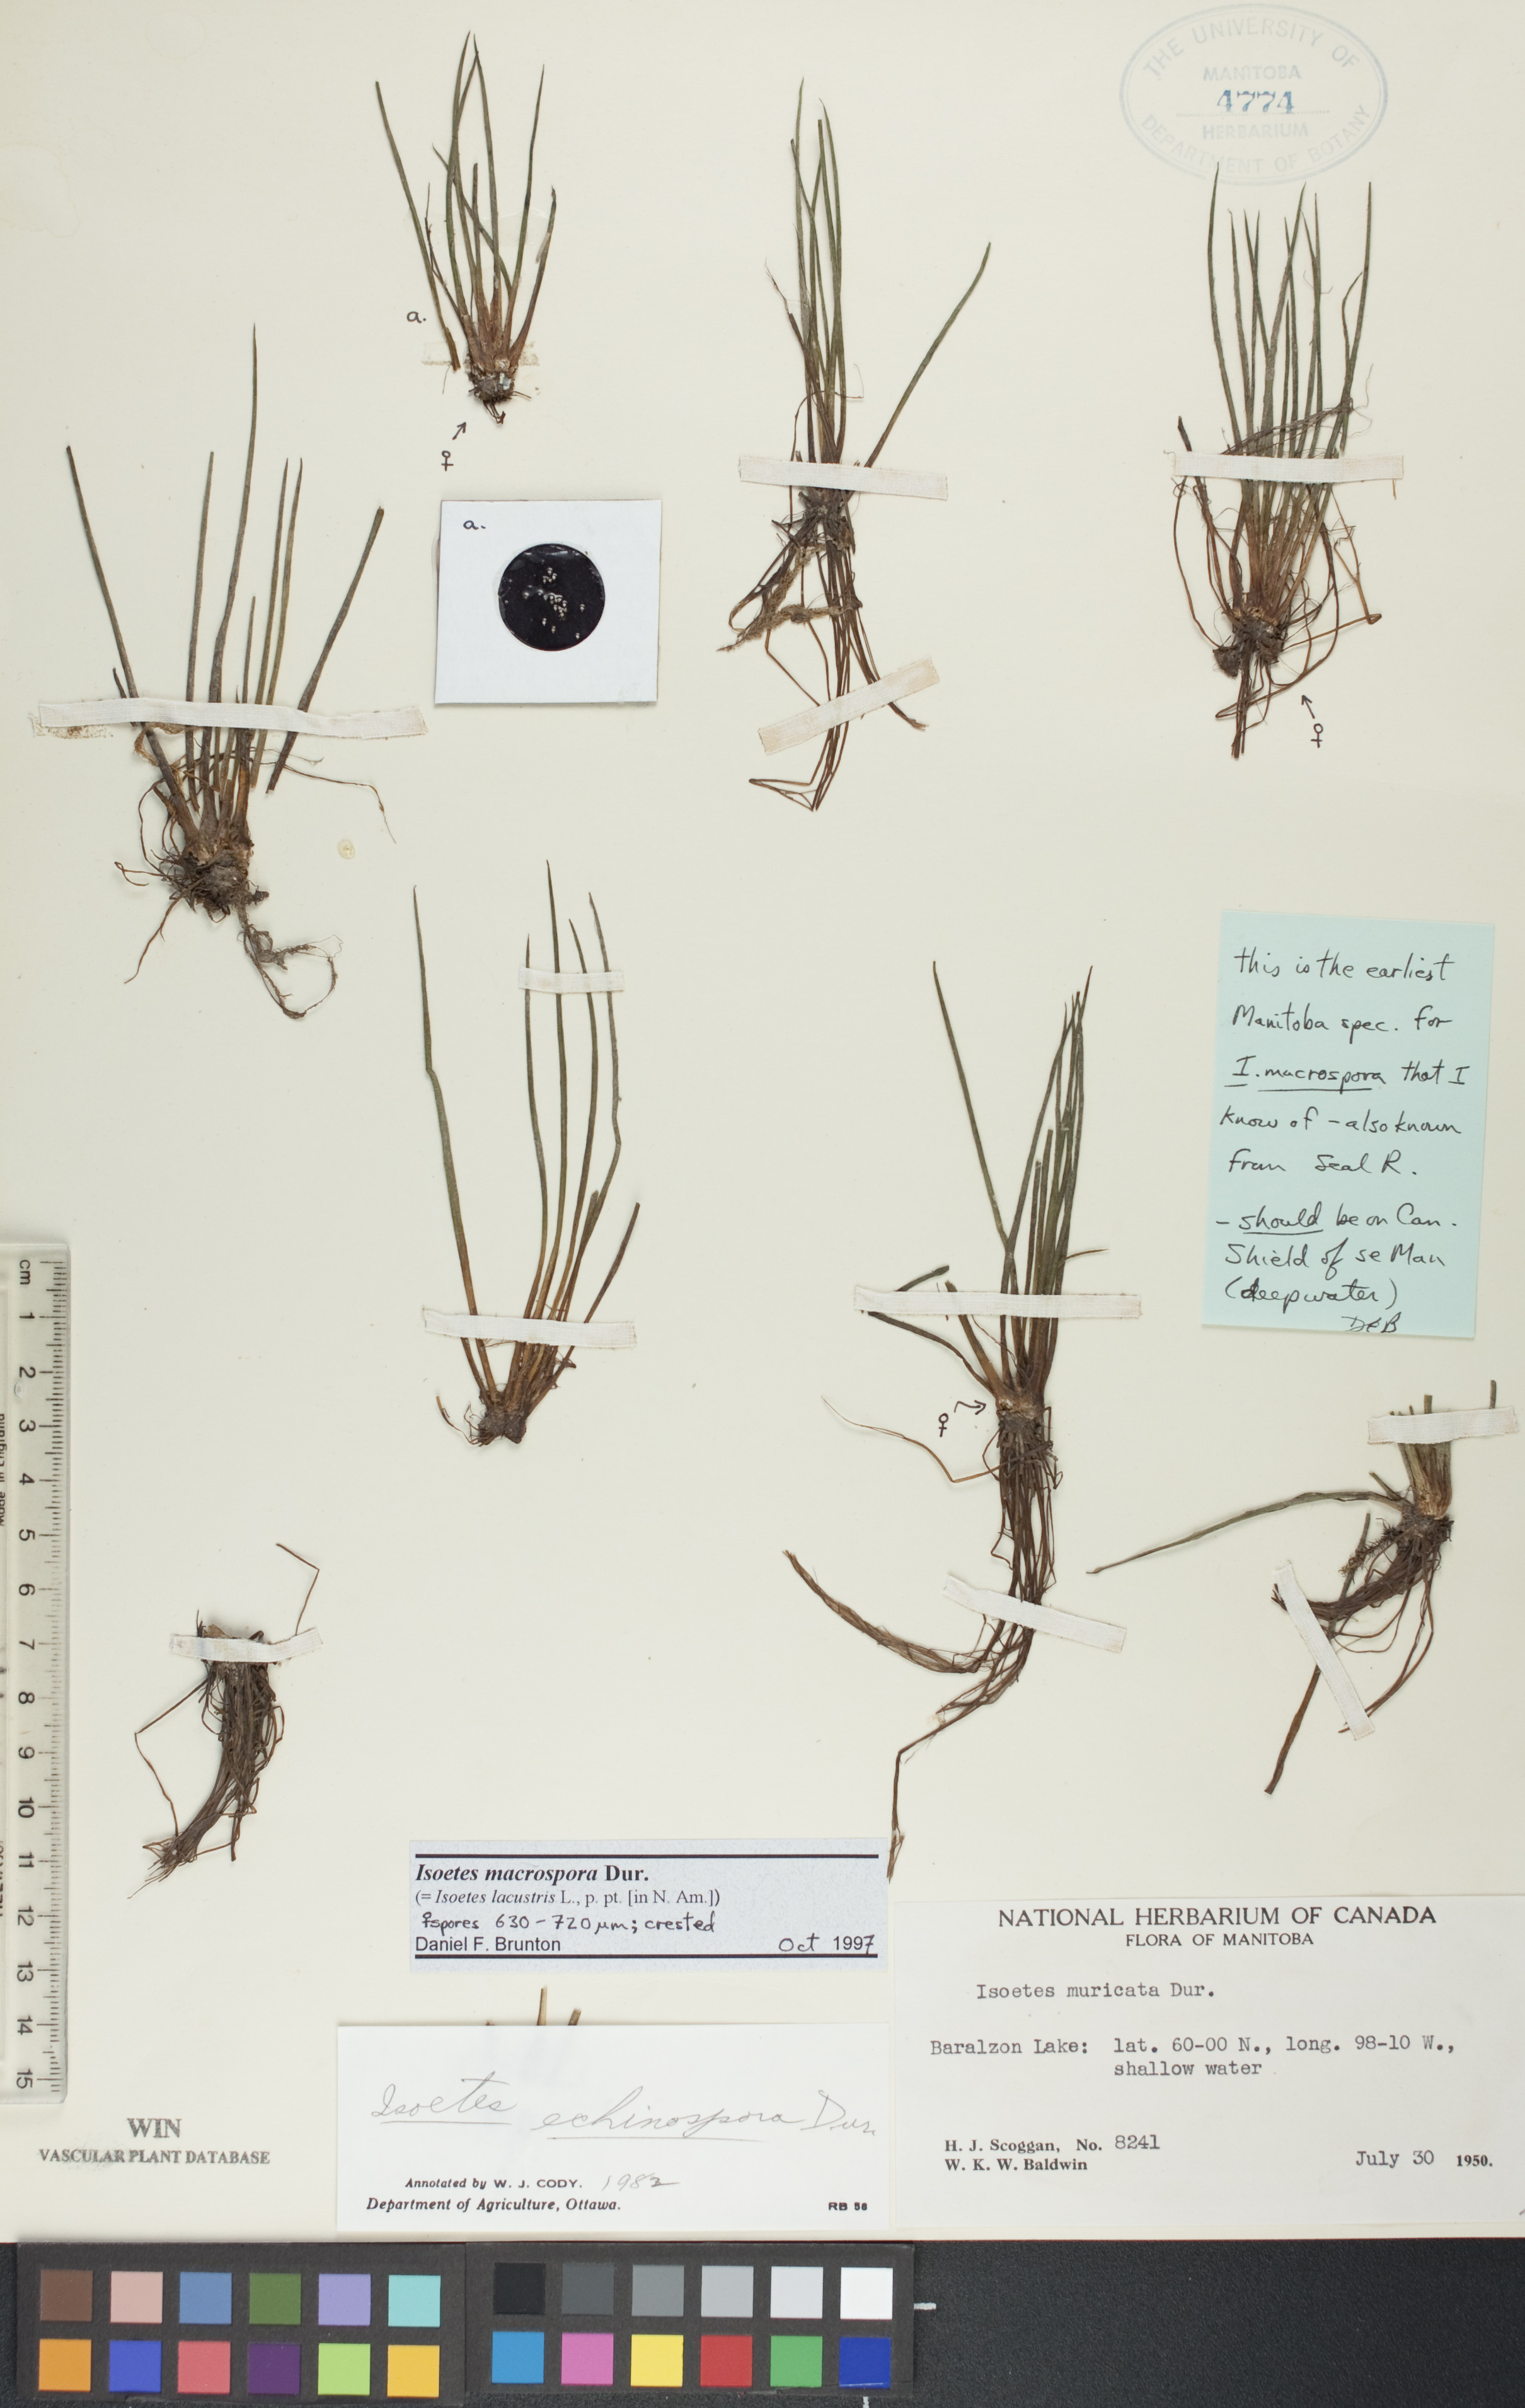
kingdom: Plantae
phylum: Tracheophyta
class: Lycopodiopsida
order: Isoetales
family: Isoetaceae
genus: Isoetes
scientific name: Isoetes lacustris
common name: Common quillwort
